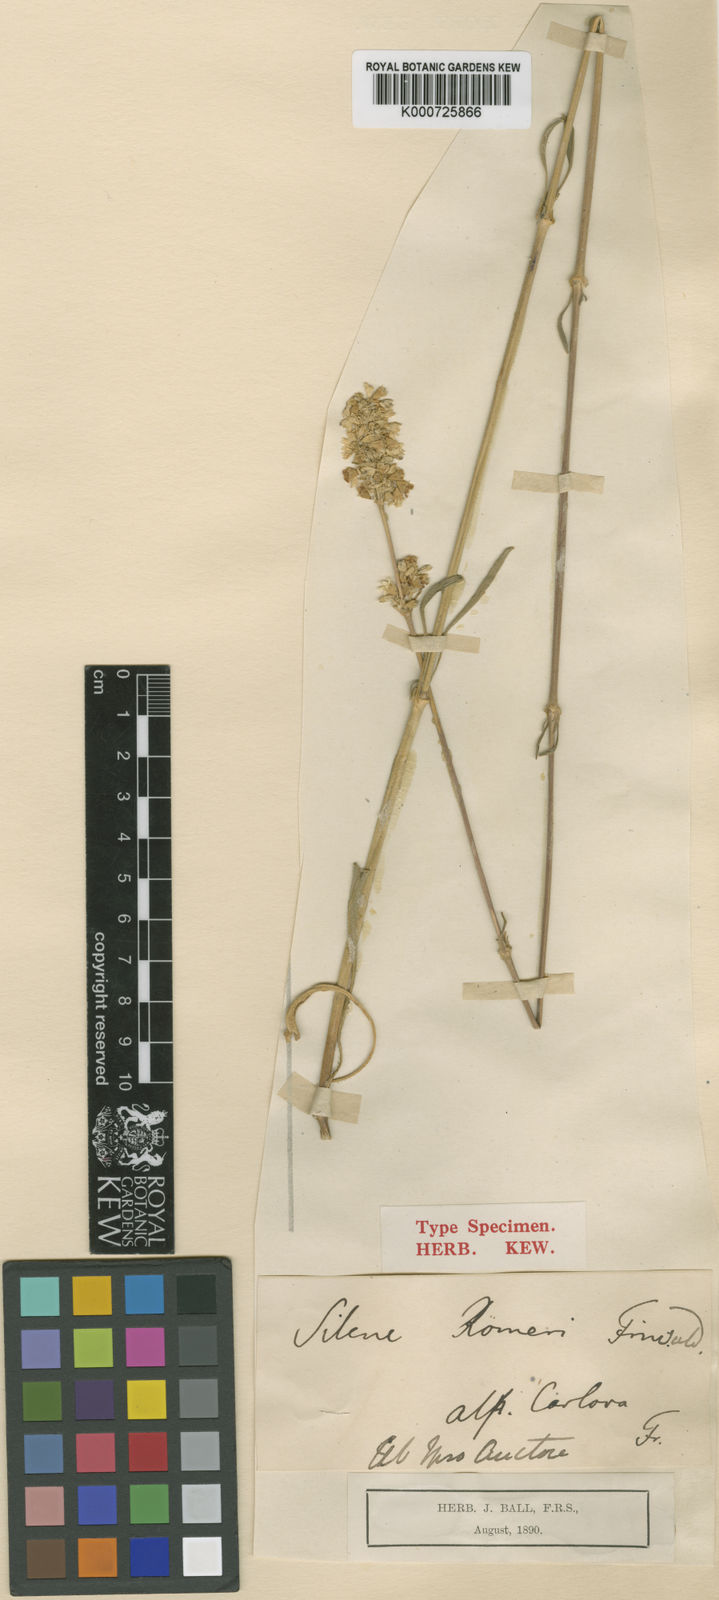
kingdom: Plantae
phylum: Tracheophyta
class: Magnoliopsida
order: Caryophyllales
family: Caryophyllaceae
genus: Silene
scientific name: Silene roemeri
